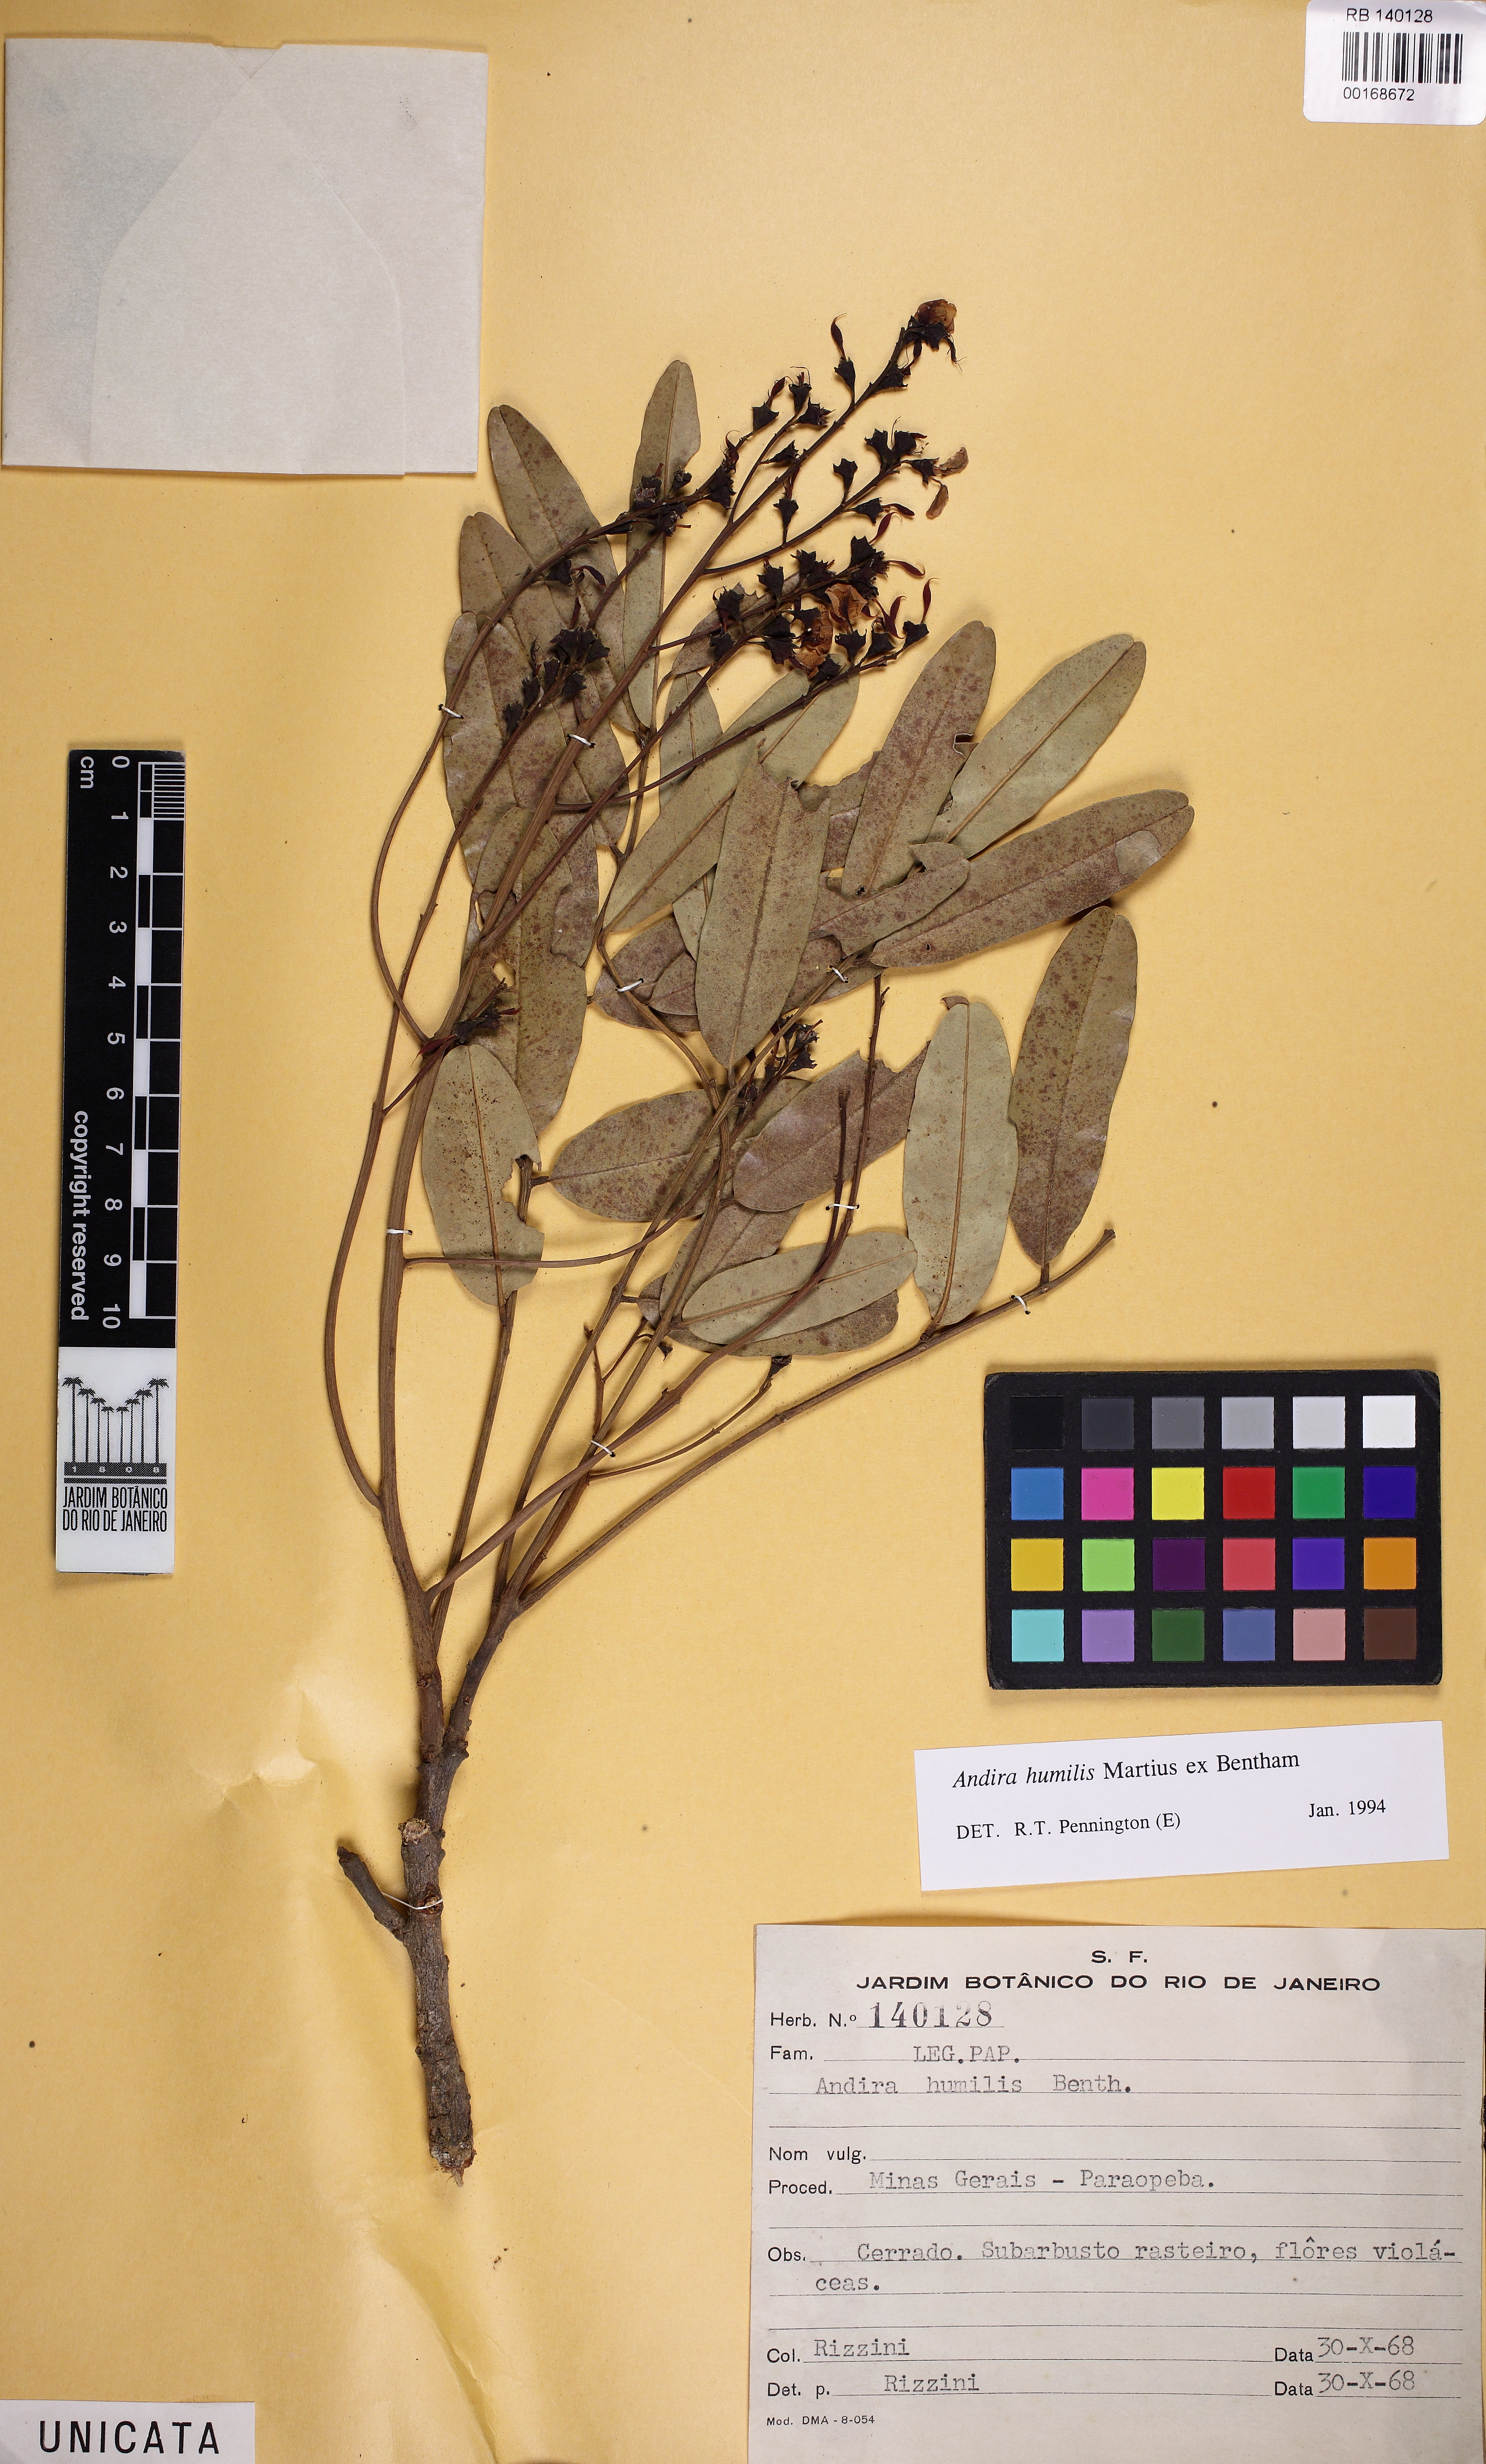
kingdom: Plantae
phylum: Tracheophyta
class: Magnoliopsida
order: Fabales
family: Fabaceae
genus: Andira
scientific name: Andira humilis
